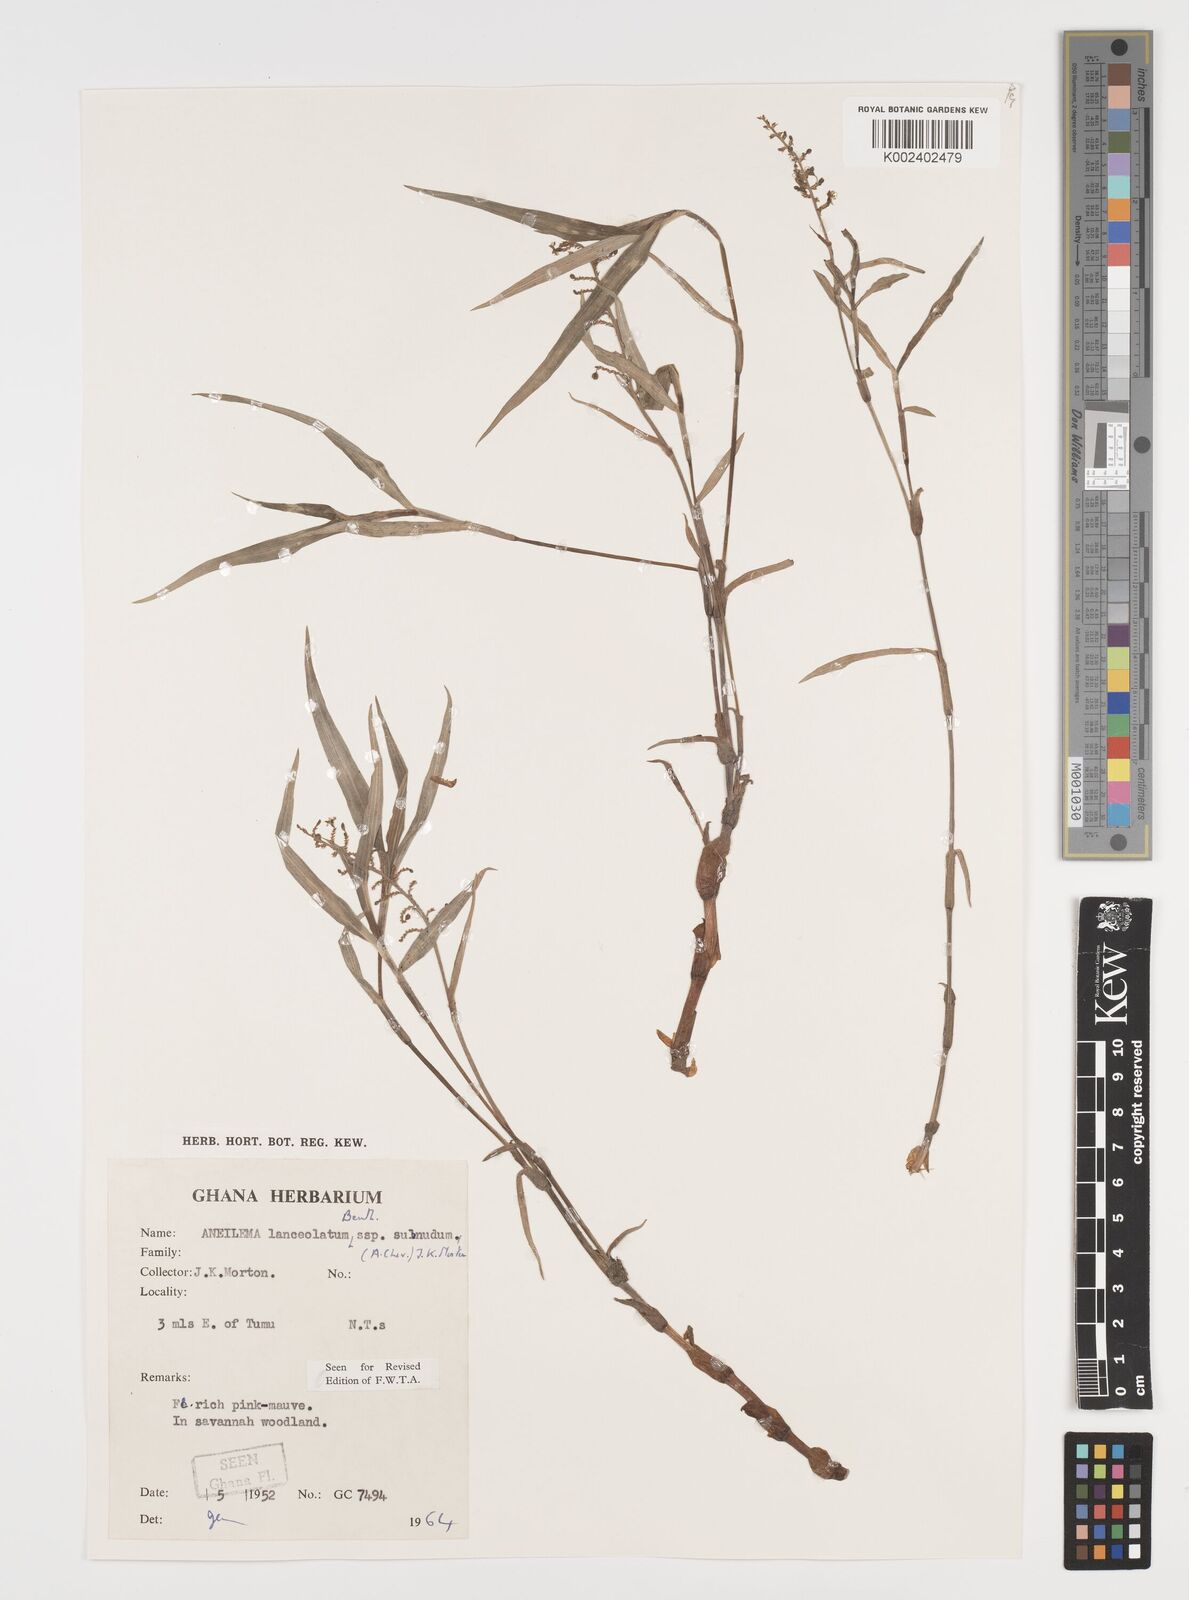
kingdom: Plantae
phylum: Tracheophyta
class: Liliopsida
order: Commelinales
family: Commelinaceae
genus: Aneilema
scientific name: Aneilema lanceolatum
